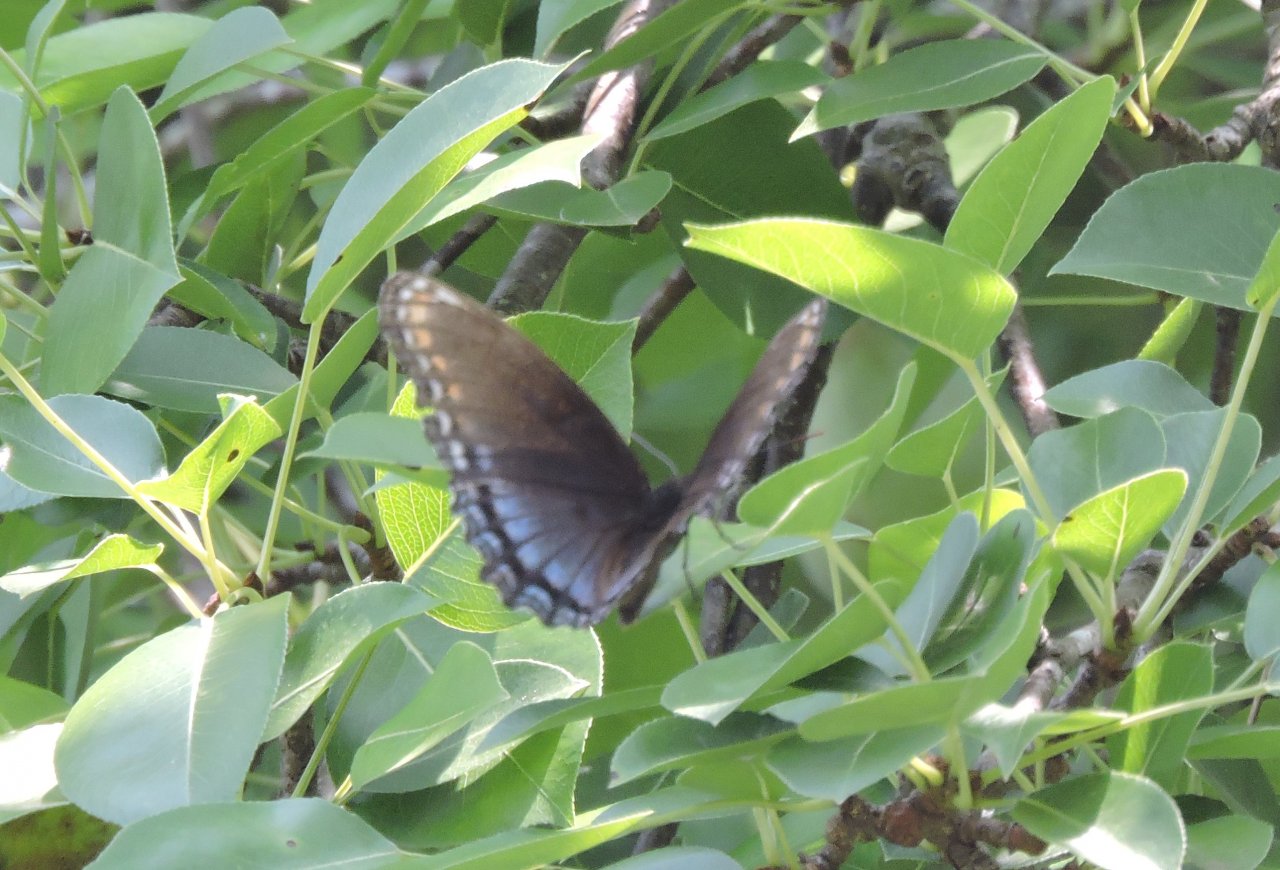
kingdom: Animalia
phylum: Arthropoda
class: Insecta
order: Lepidoptera
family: Nymphalidae
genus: Limenitis
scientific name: Limenitis astyanax
